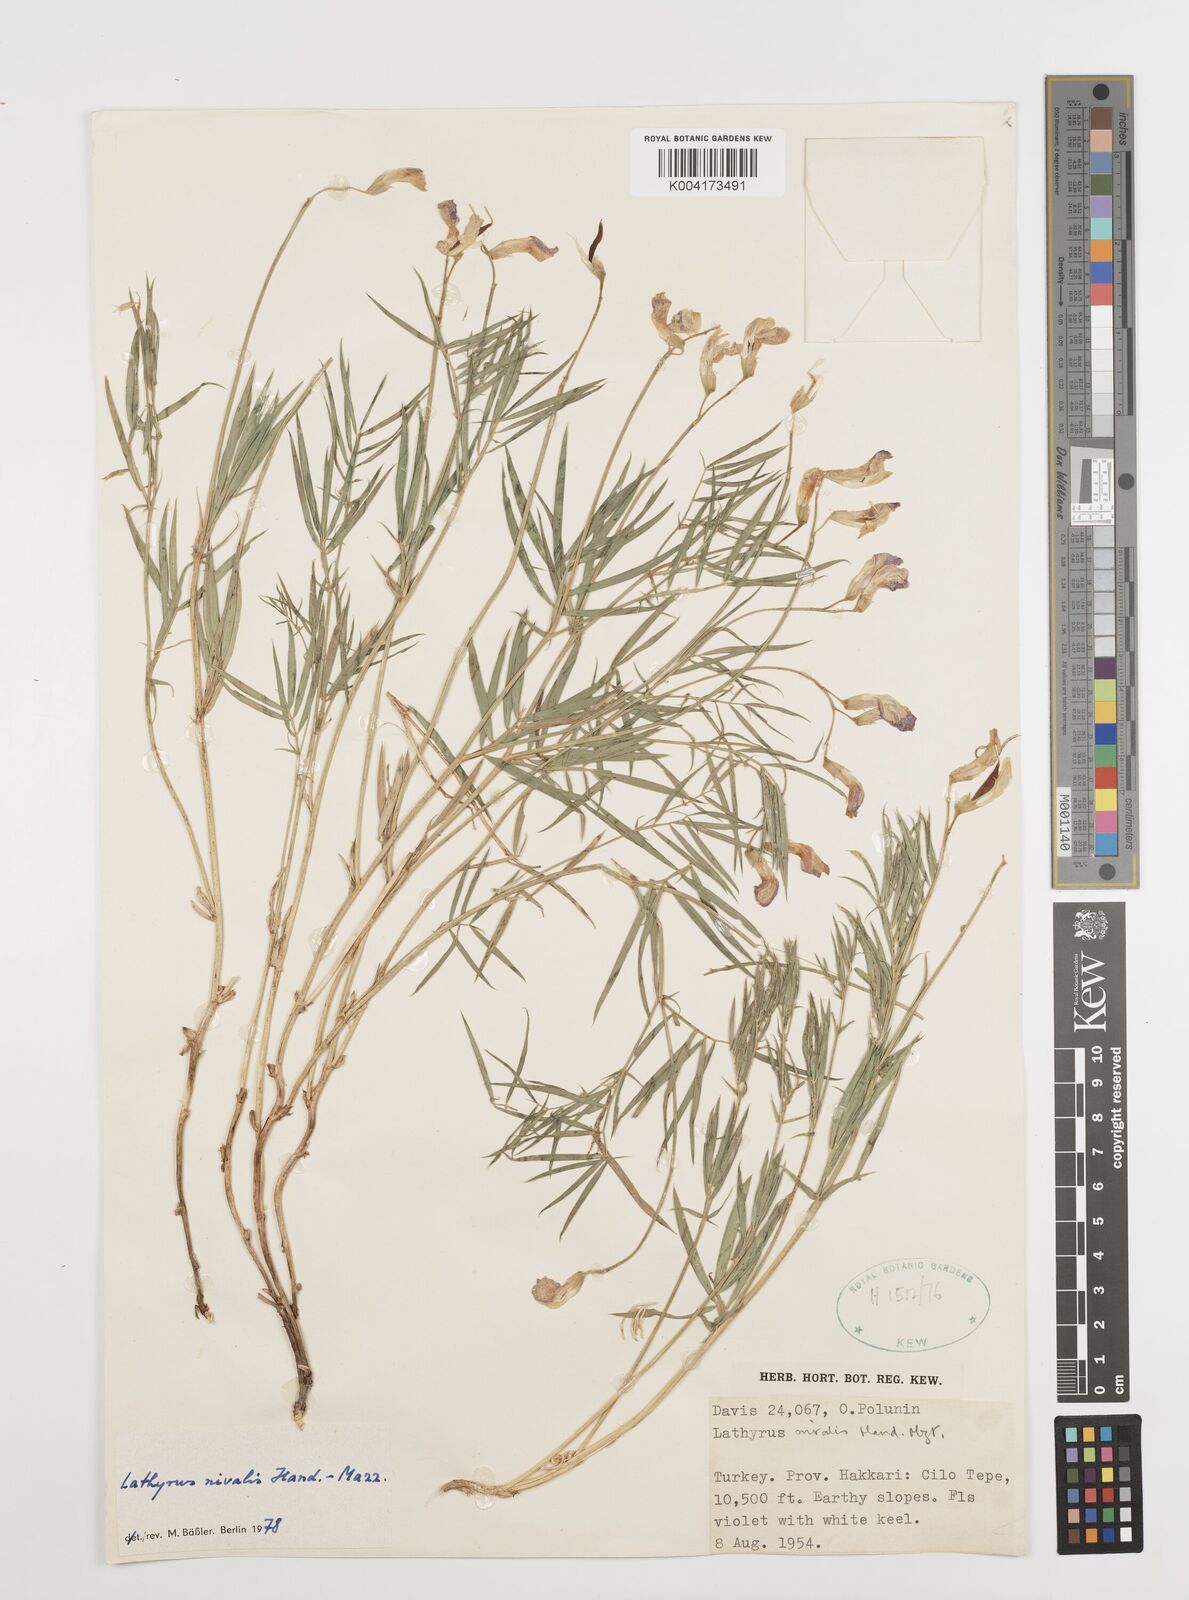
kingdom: Plantae
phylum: Tracheophyta
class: Magnoliopsida
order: Fabales
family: Fabaceae
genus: Lathyrus
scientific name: Lathyrus nivalis
